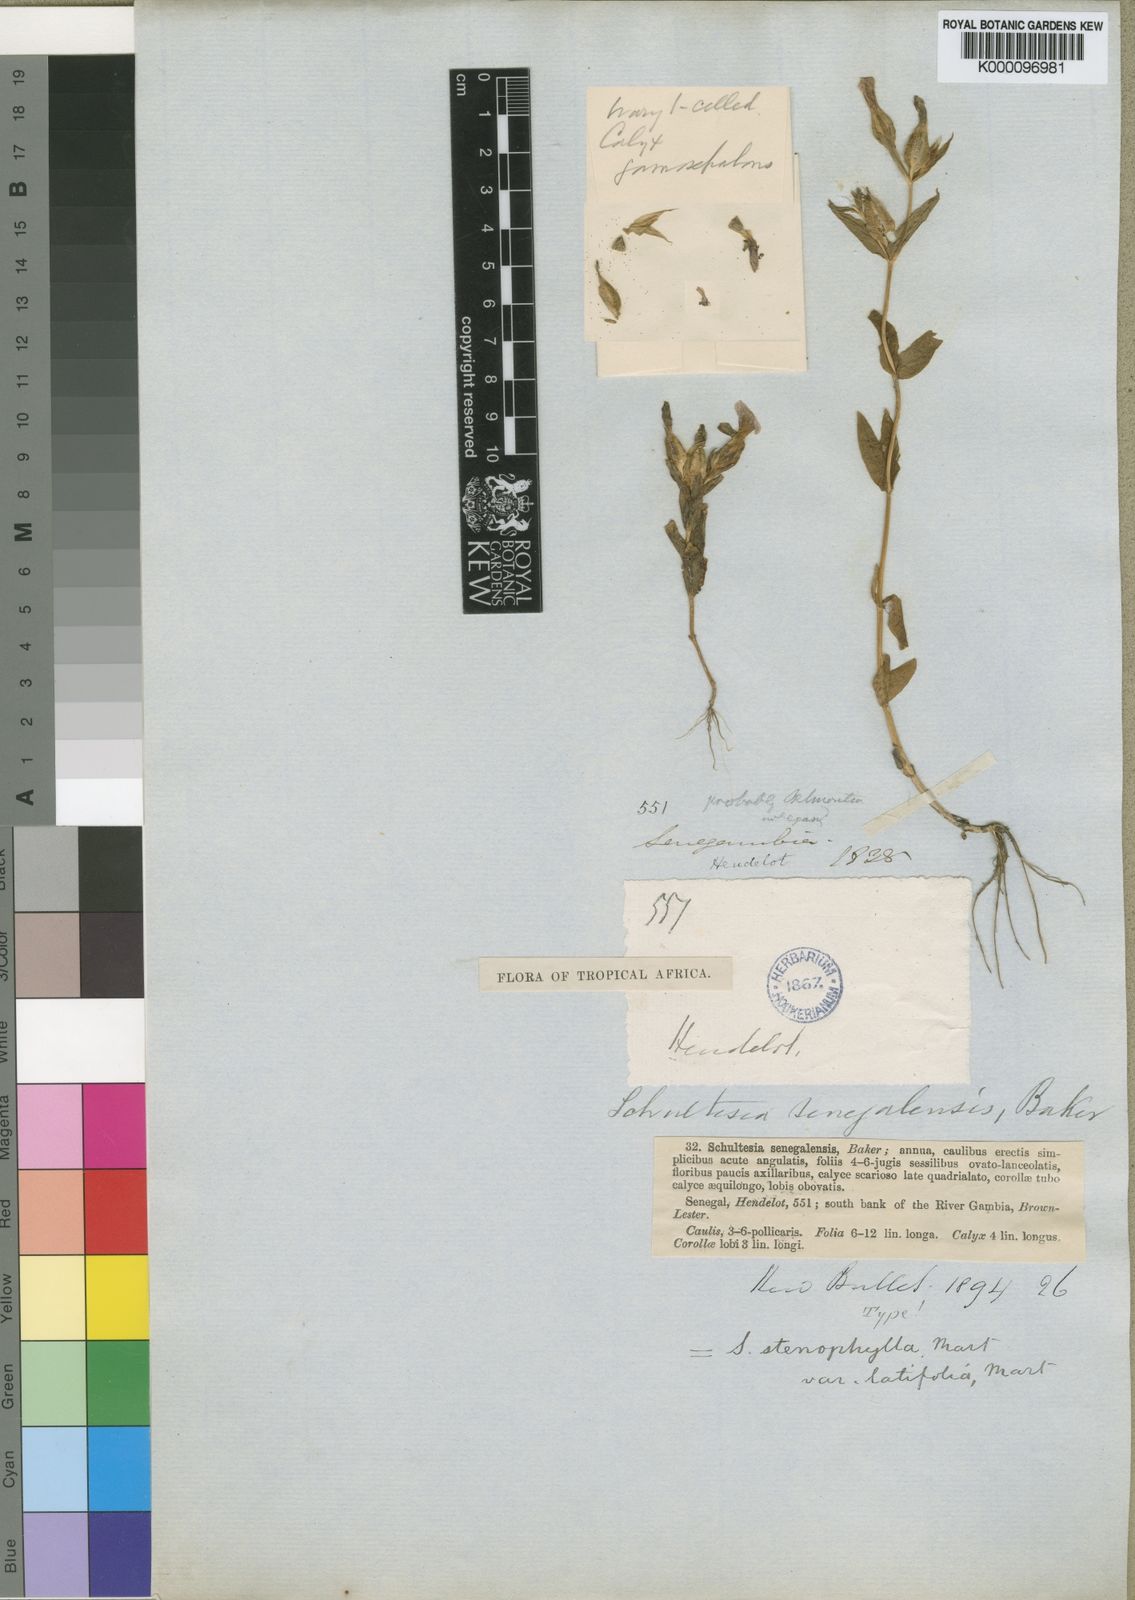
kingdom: Plantae
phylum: Tracheophyta
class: Magnoliopsida
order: Gentianales
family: Gentianaceae
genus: Schultesia
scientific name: Schultesia guianensis
